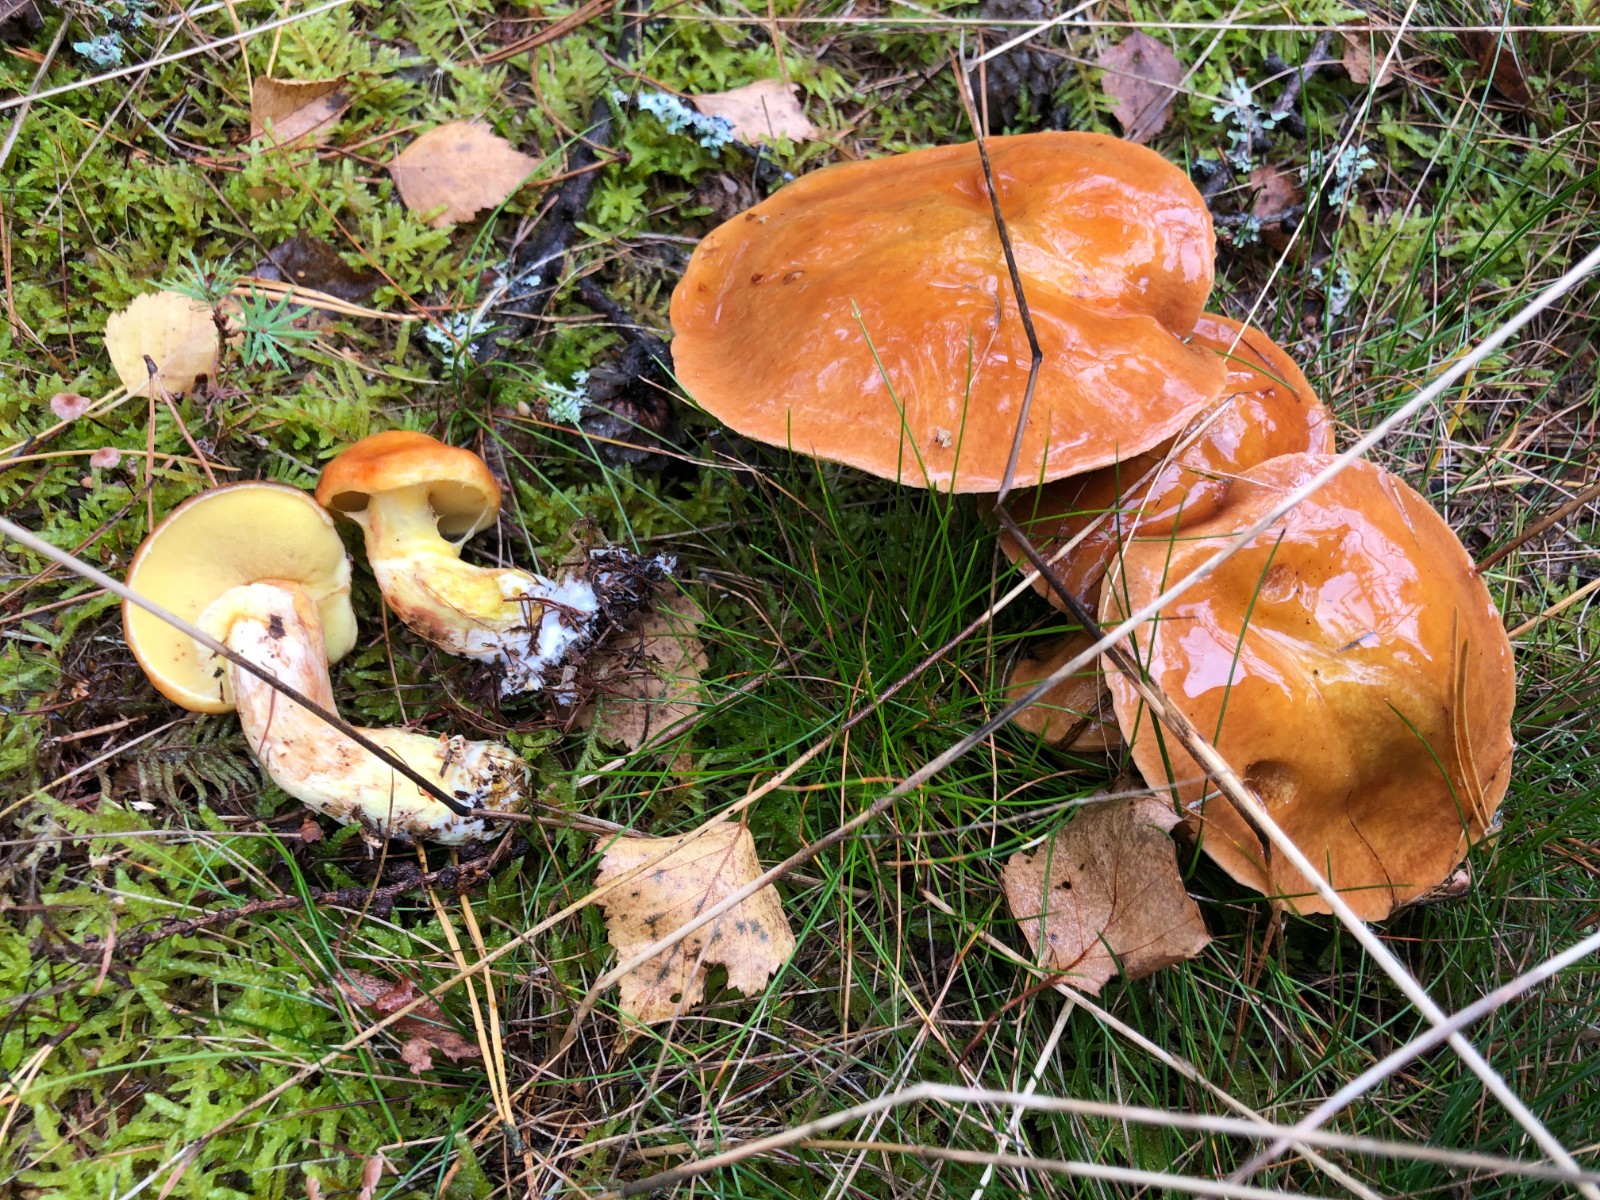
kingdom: Fungi
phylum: Basidiomycota
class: Agaricomycetes
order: Boletales
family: Suillaceae
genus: Suillus
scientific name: Suillus grevillei
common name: lærke-slimrørhat
